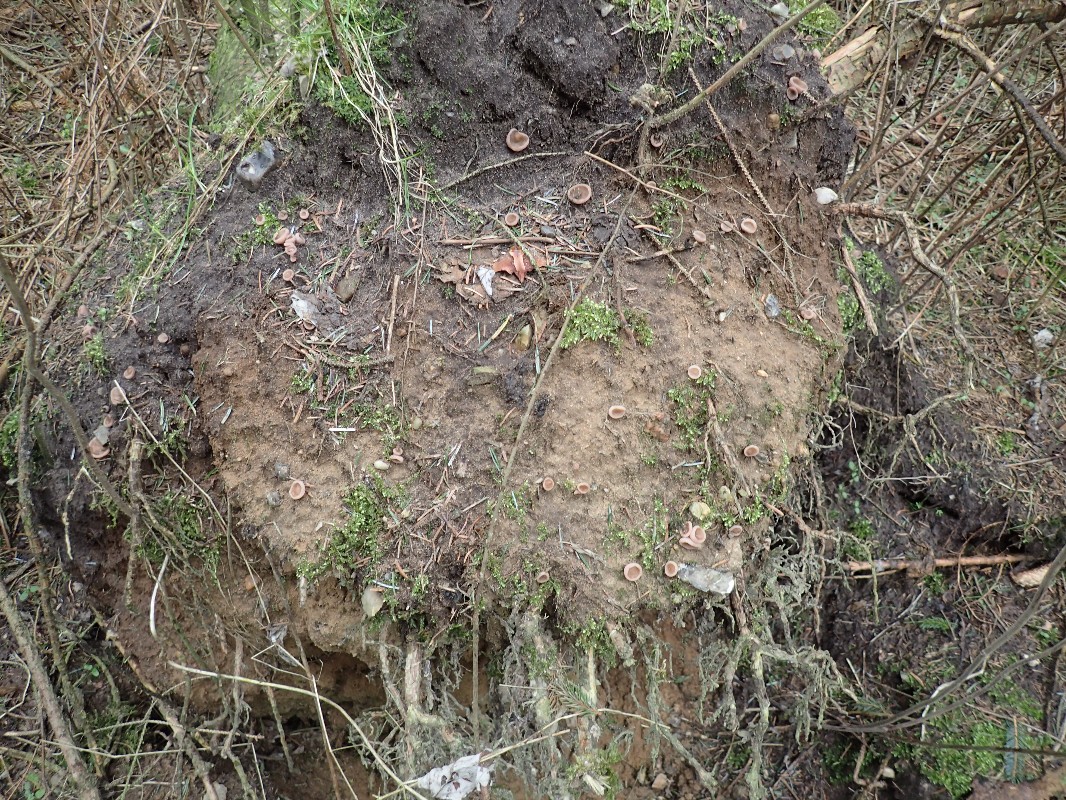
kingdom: Fungi
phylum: Ascomycota
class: Pezizomycetes
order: Pezizales
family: Discinaceae
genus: Discina
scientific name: Discina ancilis
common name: udbredt stenmorkel
